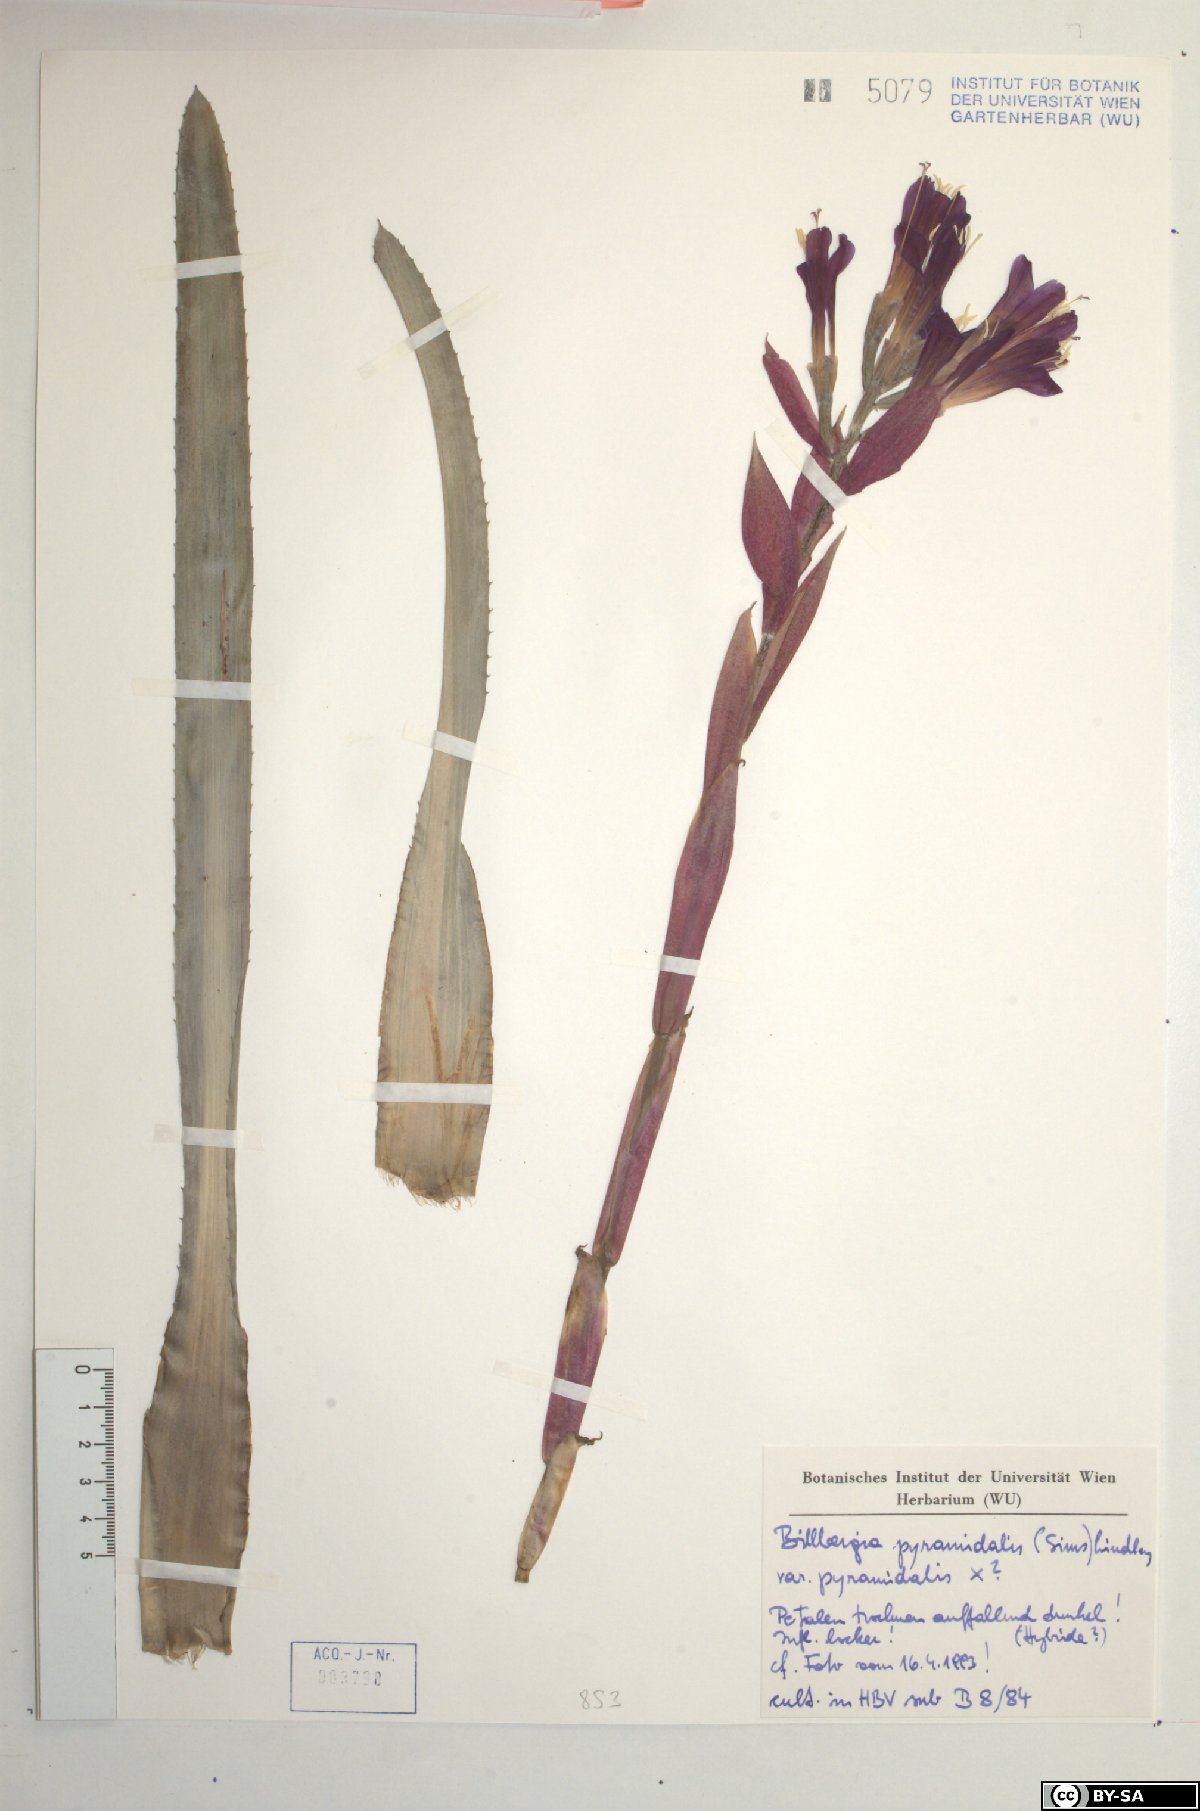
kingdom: Plantae
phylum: Tracheophyta
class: Liliopsida
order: Poales
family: Bromeliaceae
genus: Billbergia
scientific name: Billbergia pyramidalis
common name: Foolproofplant
